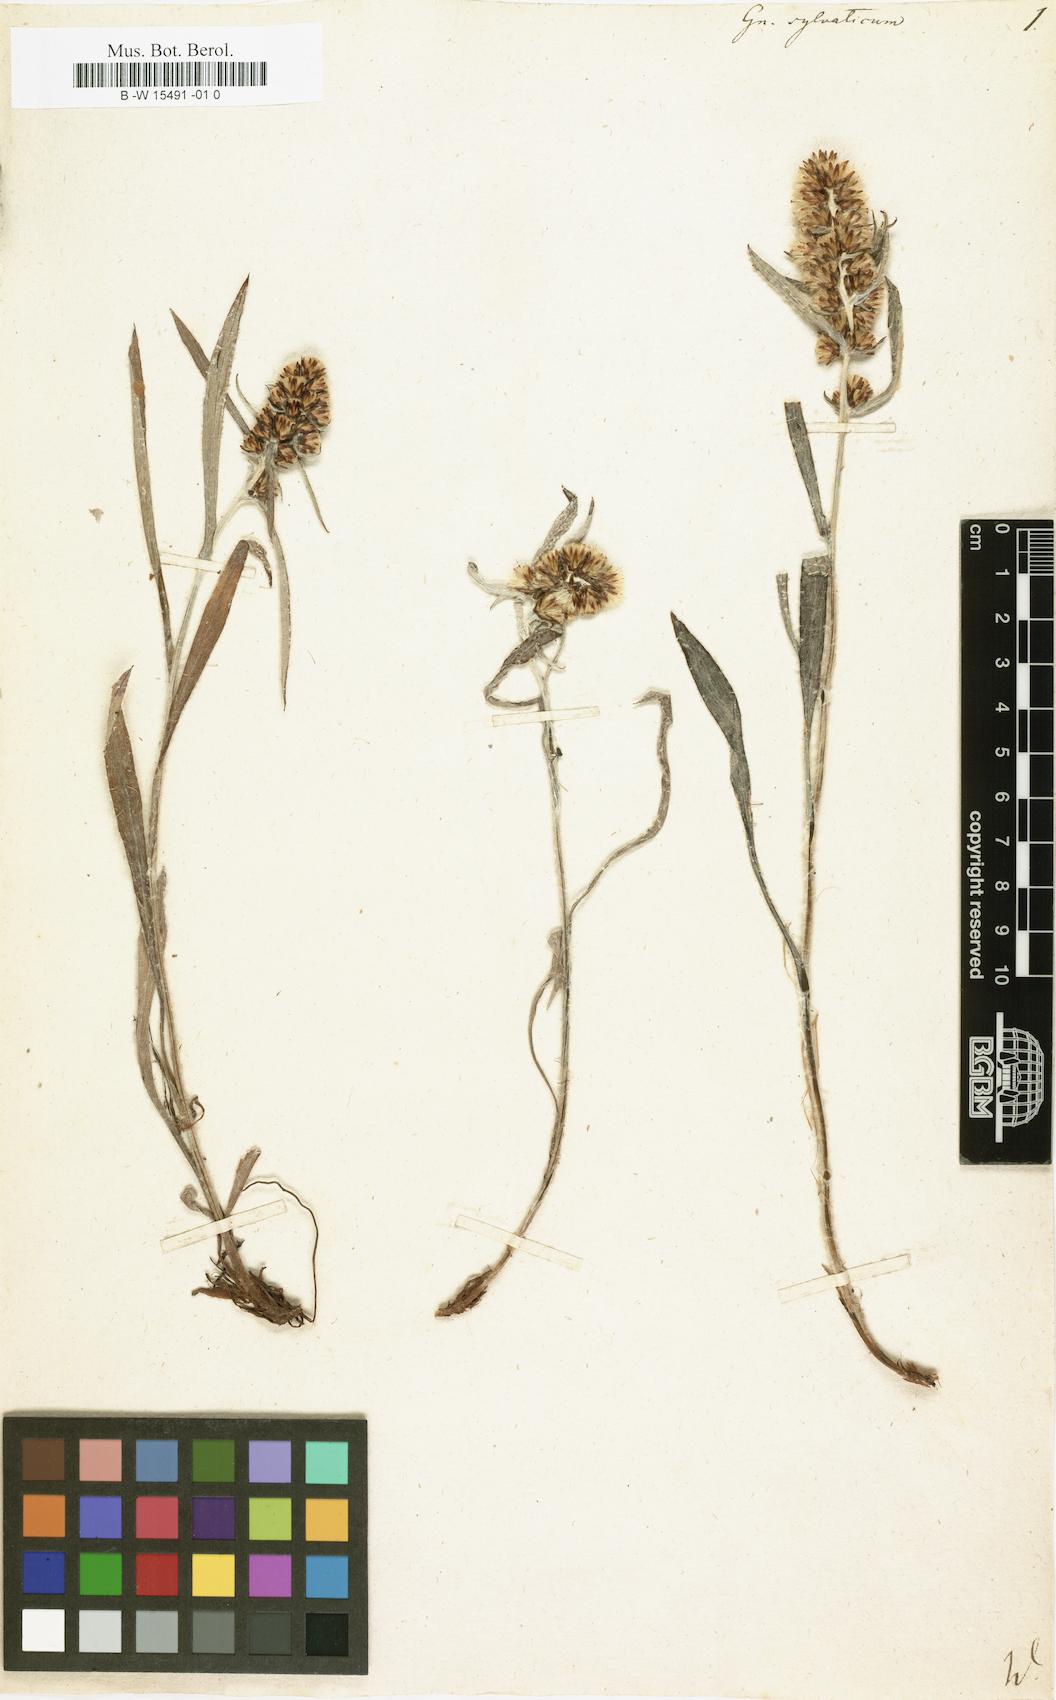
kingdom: Plantae
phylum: Tracheophyta
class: Magnoliopsida
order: Asterales
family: Asteraceae
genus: Gnaphalium
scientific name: Gnaphalium sylvaticum
